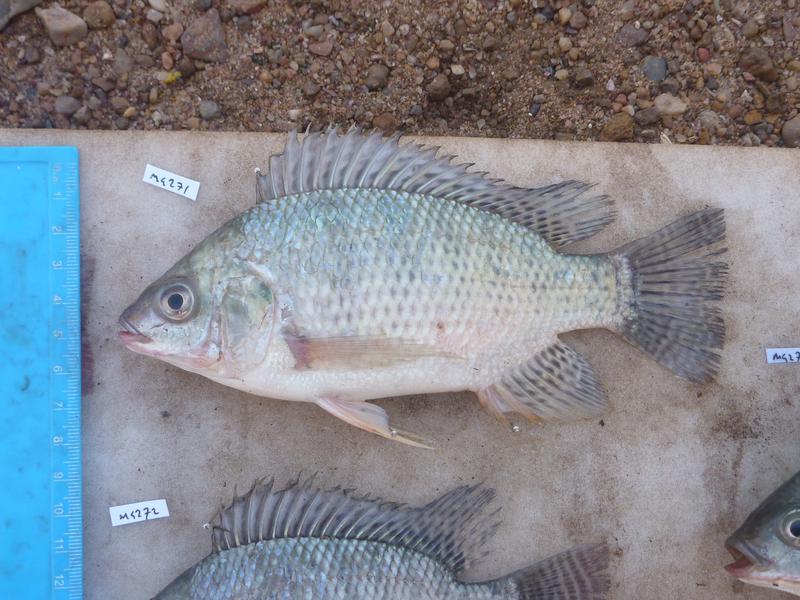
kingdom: Animalia
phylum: Chordata
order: Perciformes
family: Cichlidae
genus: Oreochromis
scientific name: Oreochromis niloticus
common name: Nile tilapia
